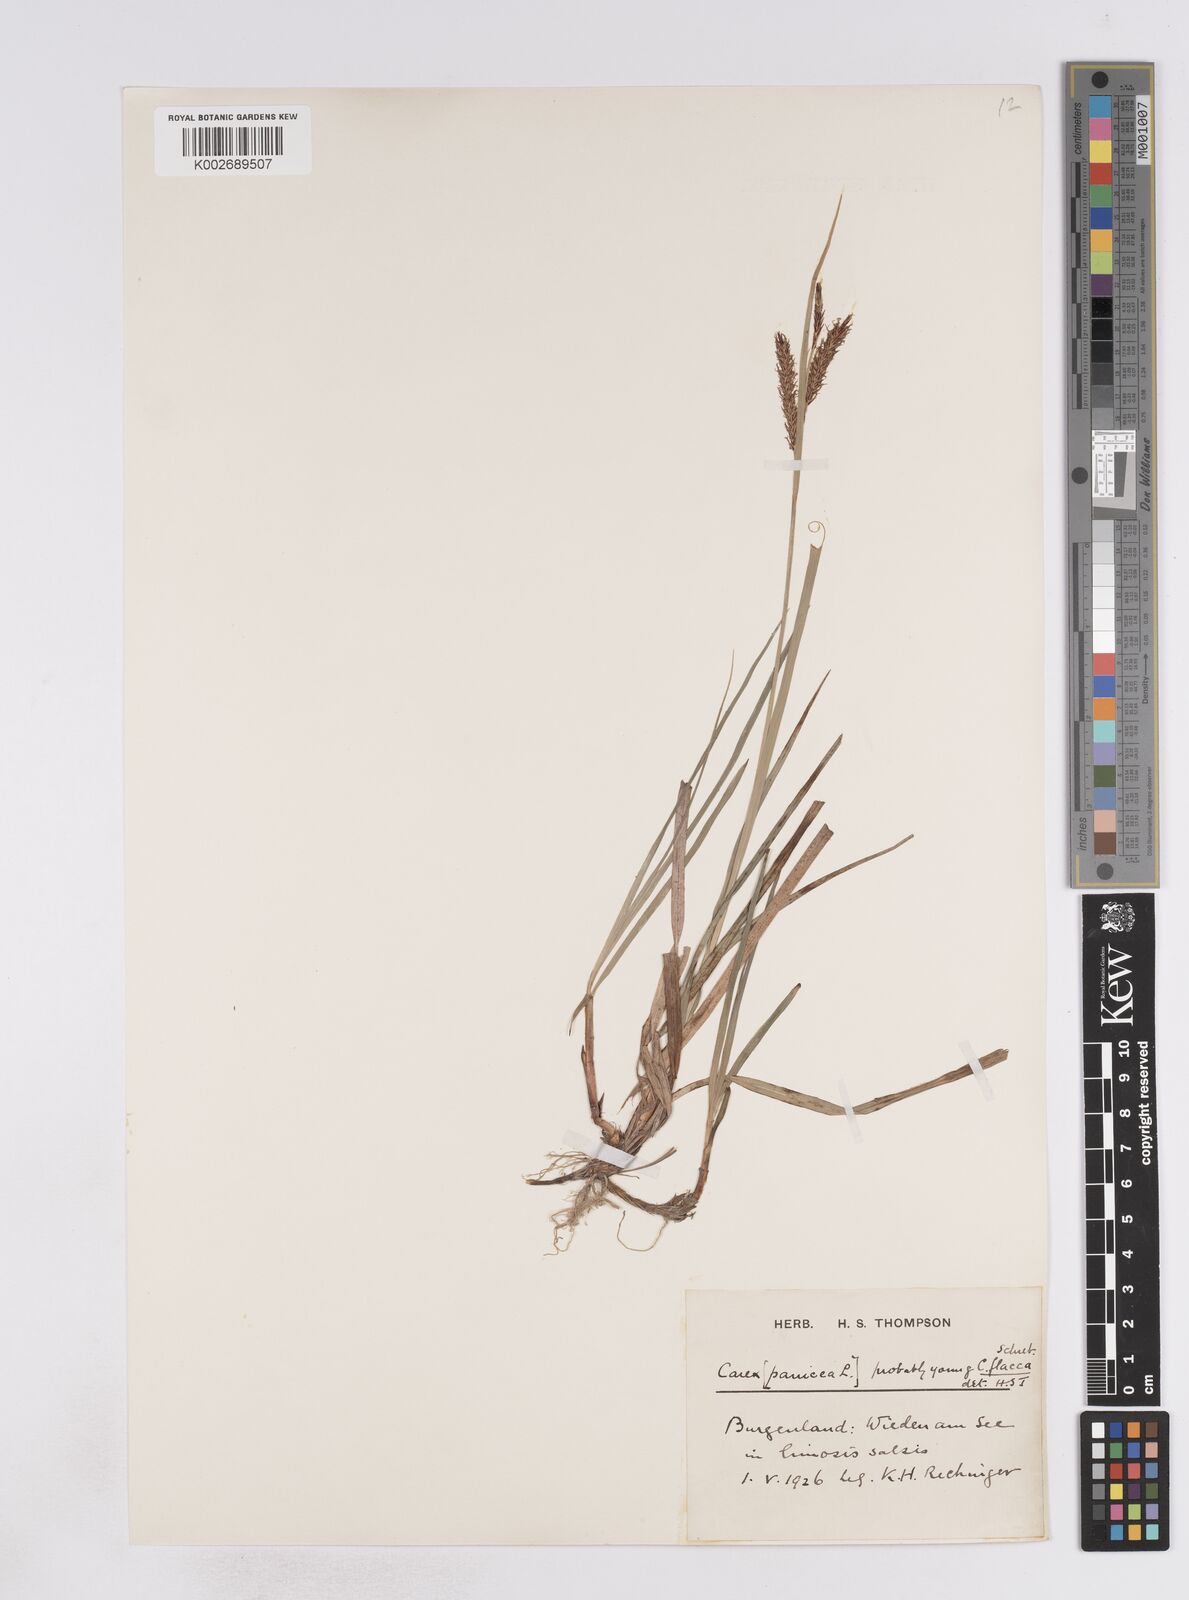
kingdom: Plantae
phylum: Tracheophyta
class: Liliopsida
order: Poales
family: Cyperaceae
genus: Carex
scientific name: Carex flacca
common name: Glaucous sedge
